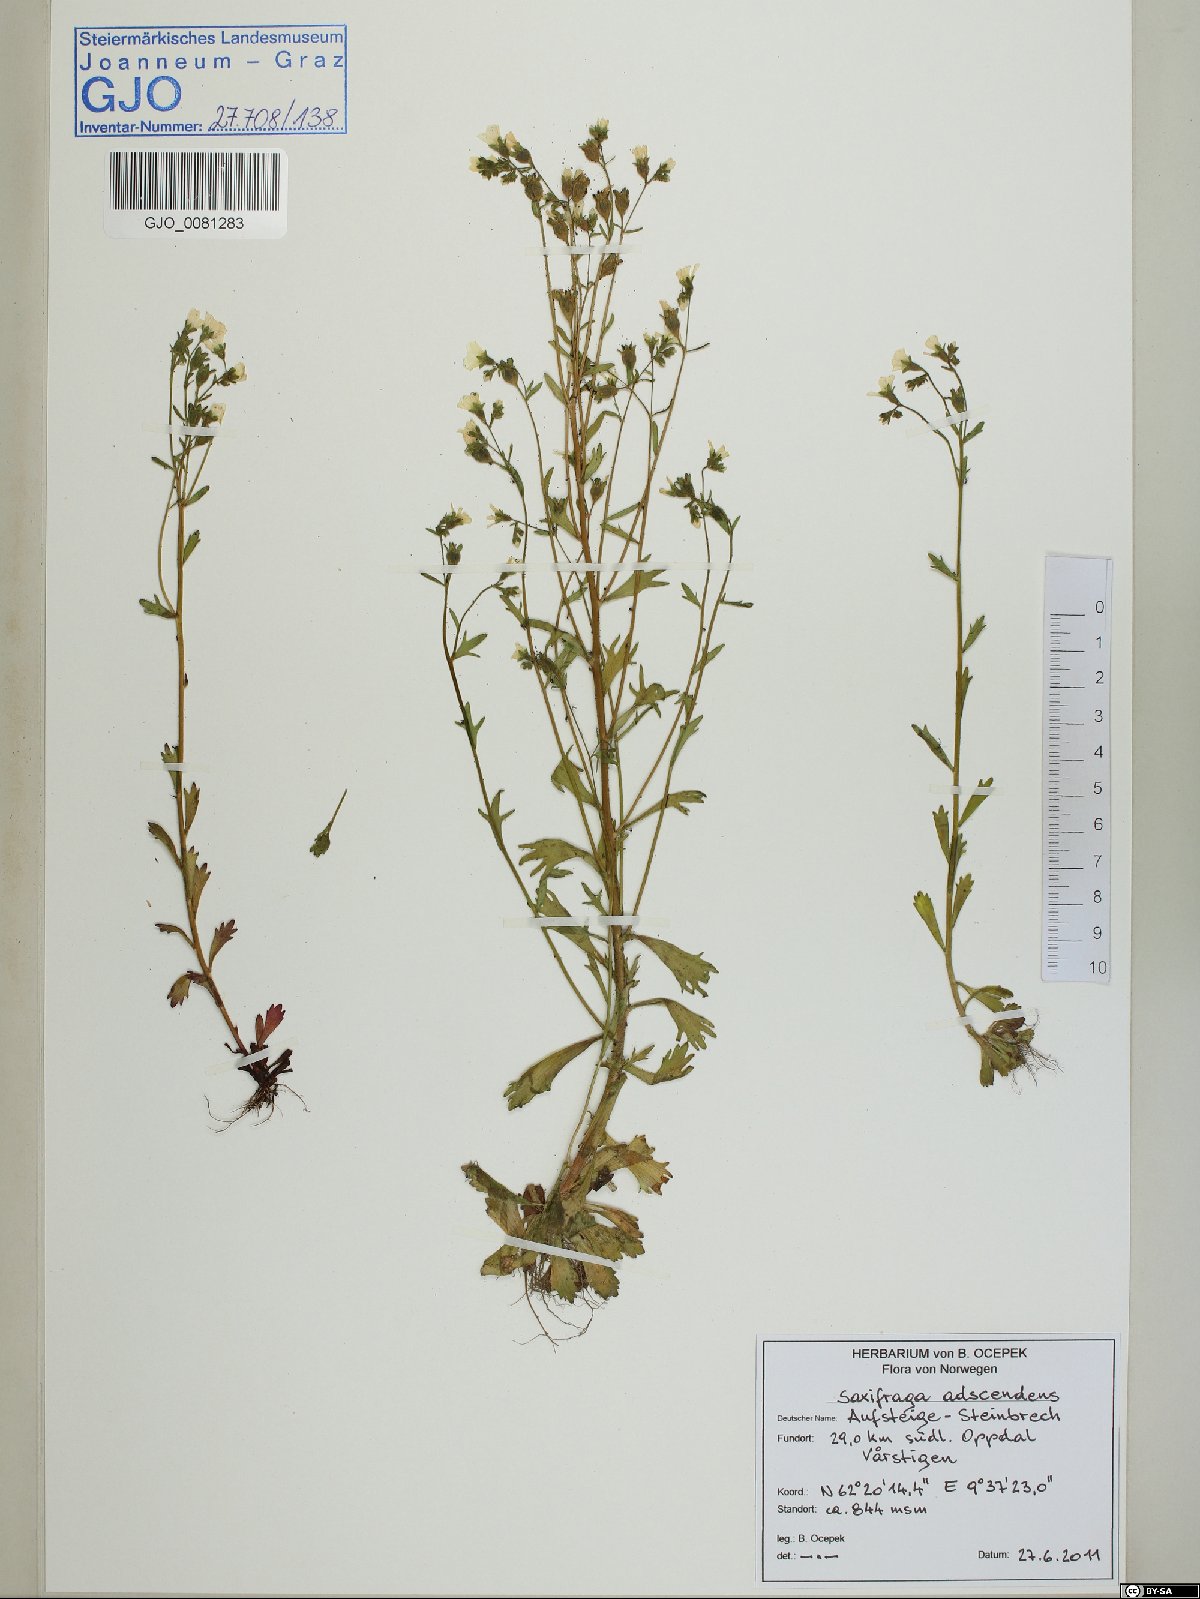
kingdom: Plantae
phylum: Tracheophyta
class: Magnoliopsida
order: Saxifragales
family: Saxifragaceae
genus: Saxifraga
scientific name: Saxifraga adscendens
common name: Ascending saxifrage
